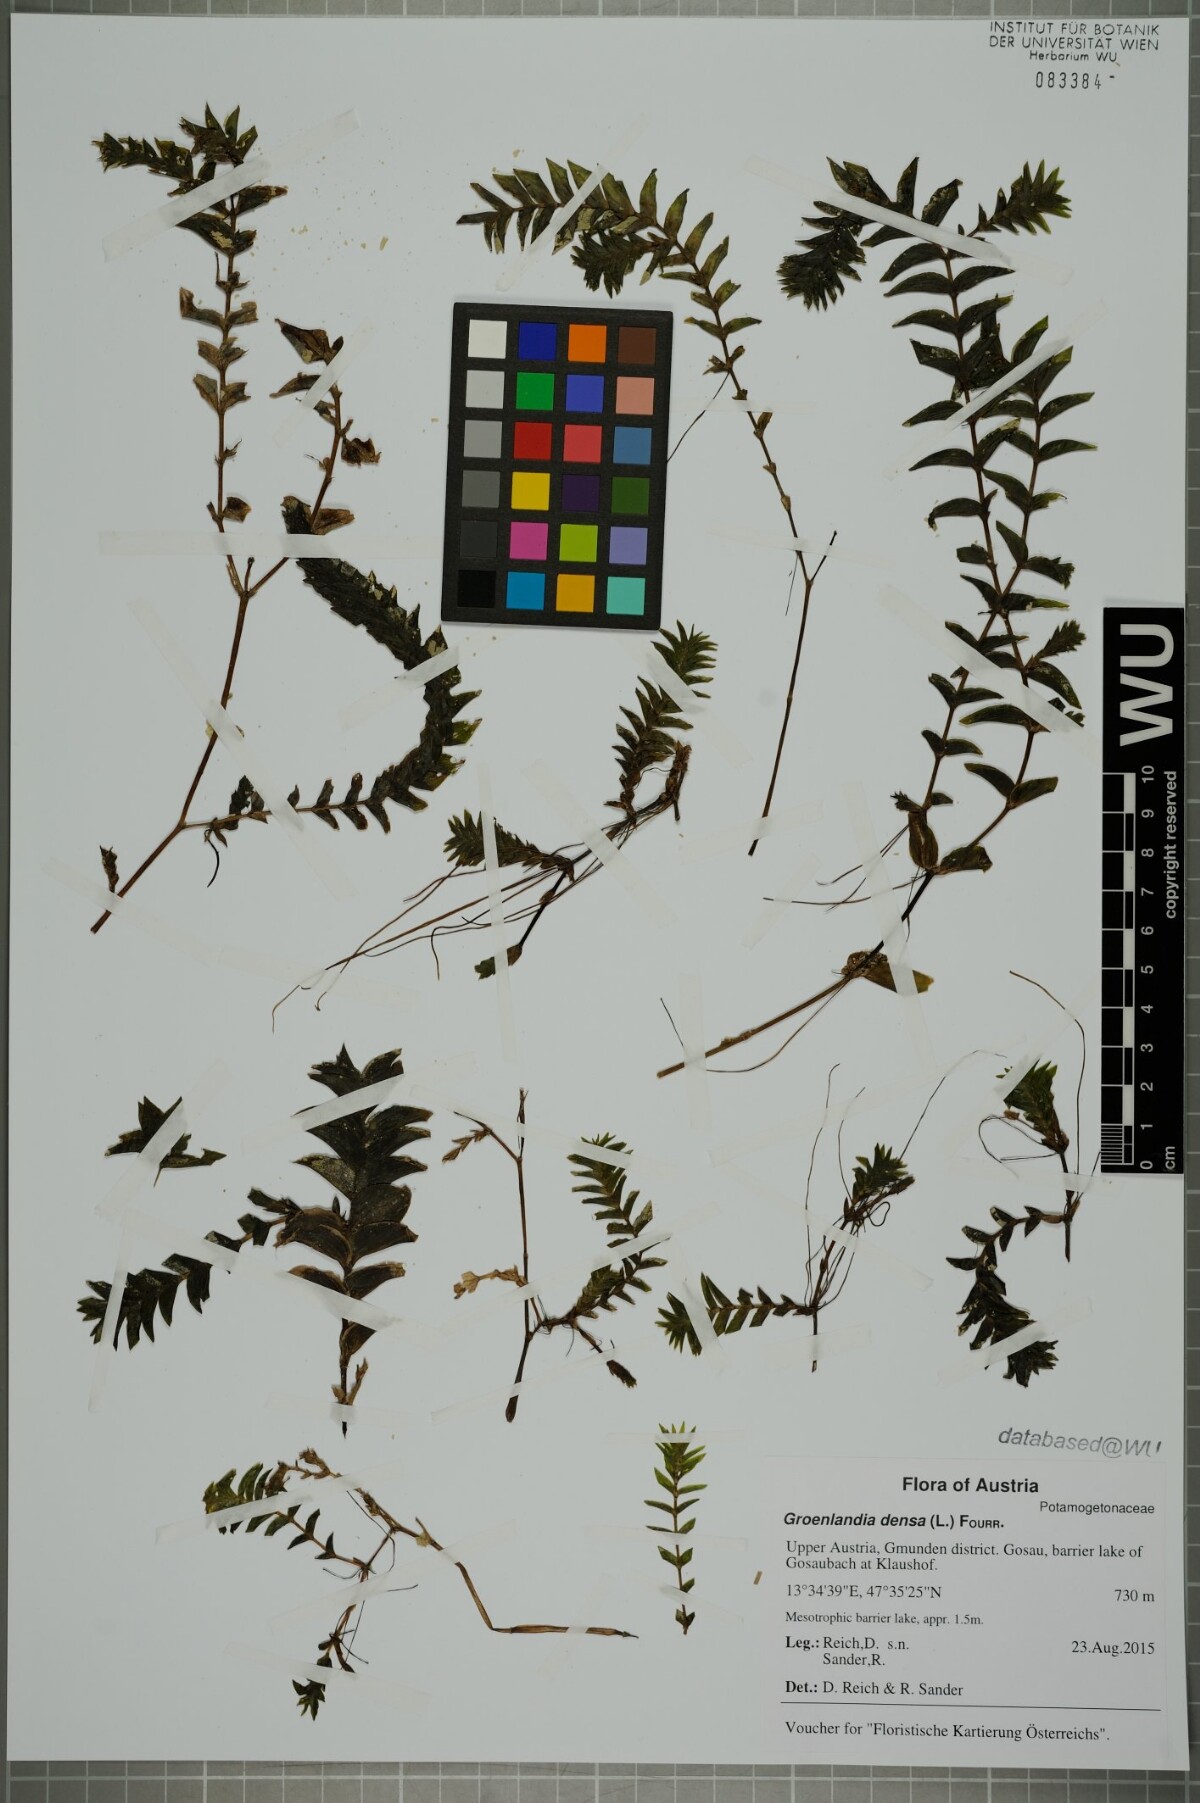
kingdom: Plantae
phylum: Tracheophyta
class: Liliopsida
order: Alismatales
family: Potamogetonaceae
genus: Groenlandia
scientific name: Groenlandia densa
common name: Opposite-leaved pondweed
